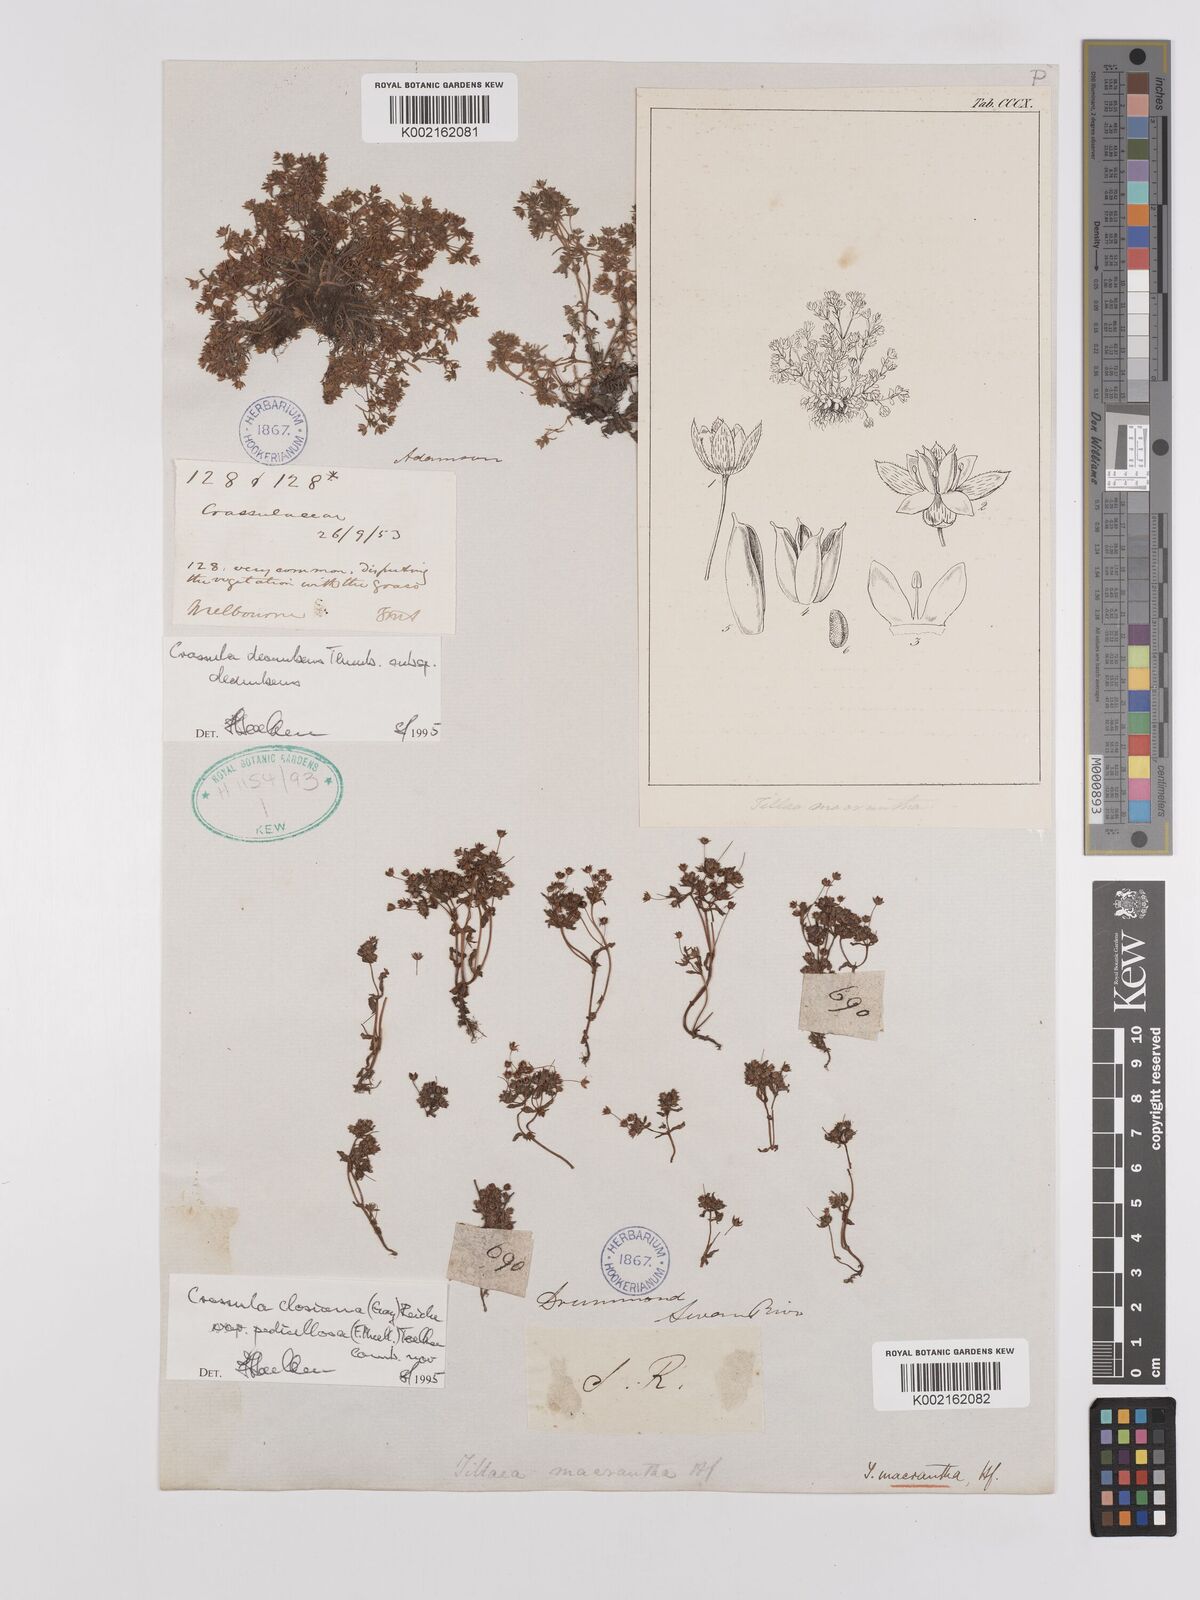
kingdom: Plantae
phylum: Tracheophyta
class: Magnoliopsida
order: Saxifragales
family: Crassulaceae
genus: Crassula
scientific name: Crassula closiana
